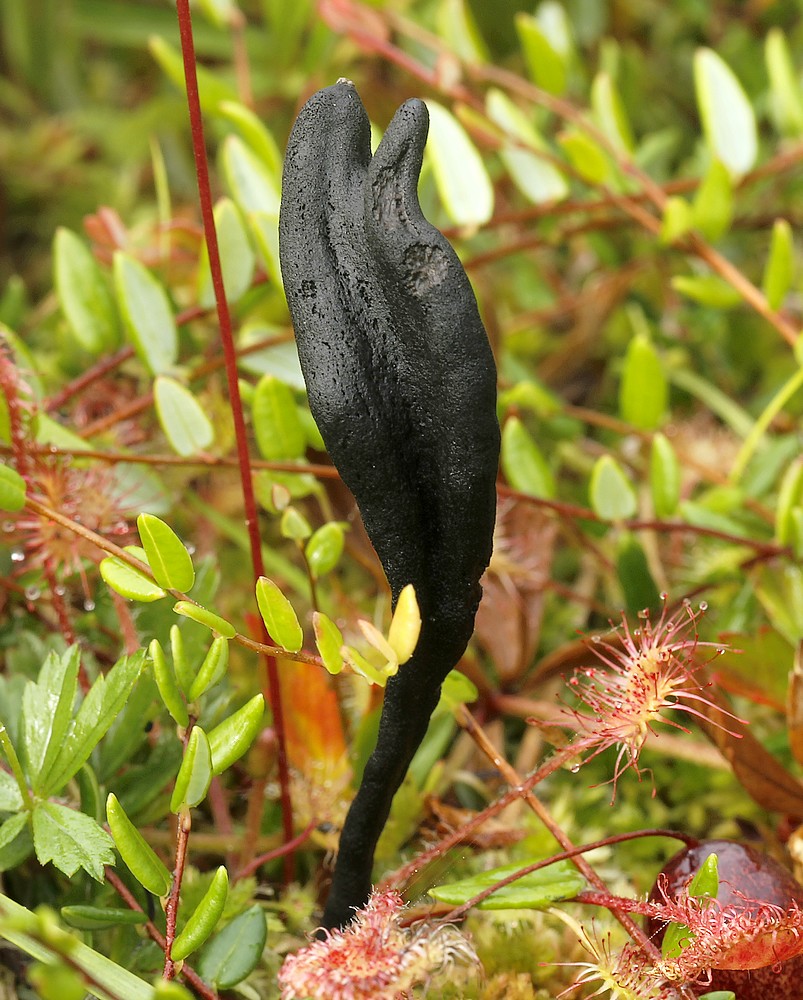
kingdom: Fungi
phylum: Ascomycota
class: Geoglossomycetes
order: Geoglossales
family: Geoglossaceae
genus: Geoglossum
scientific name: Geoglossum
